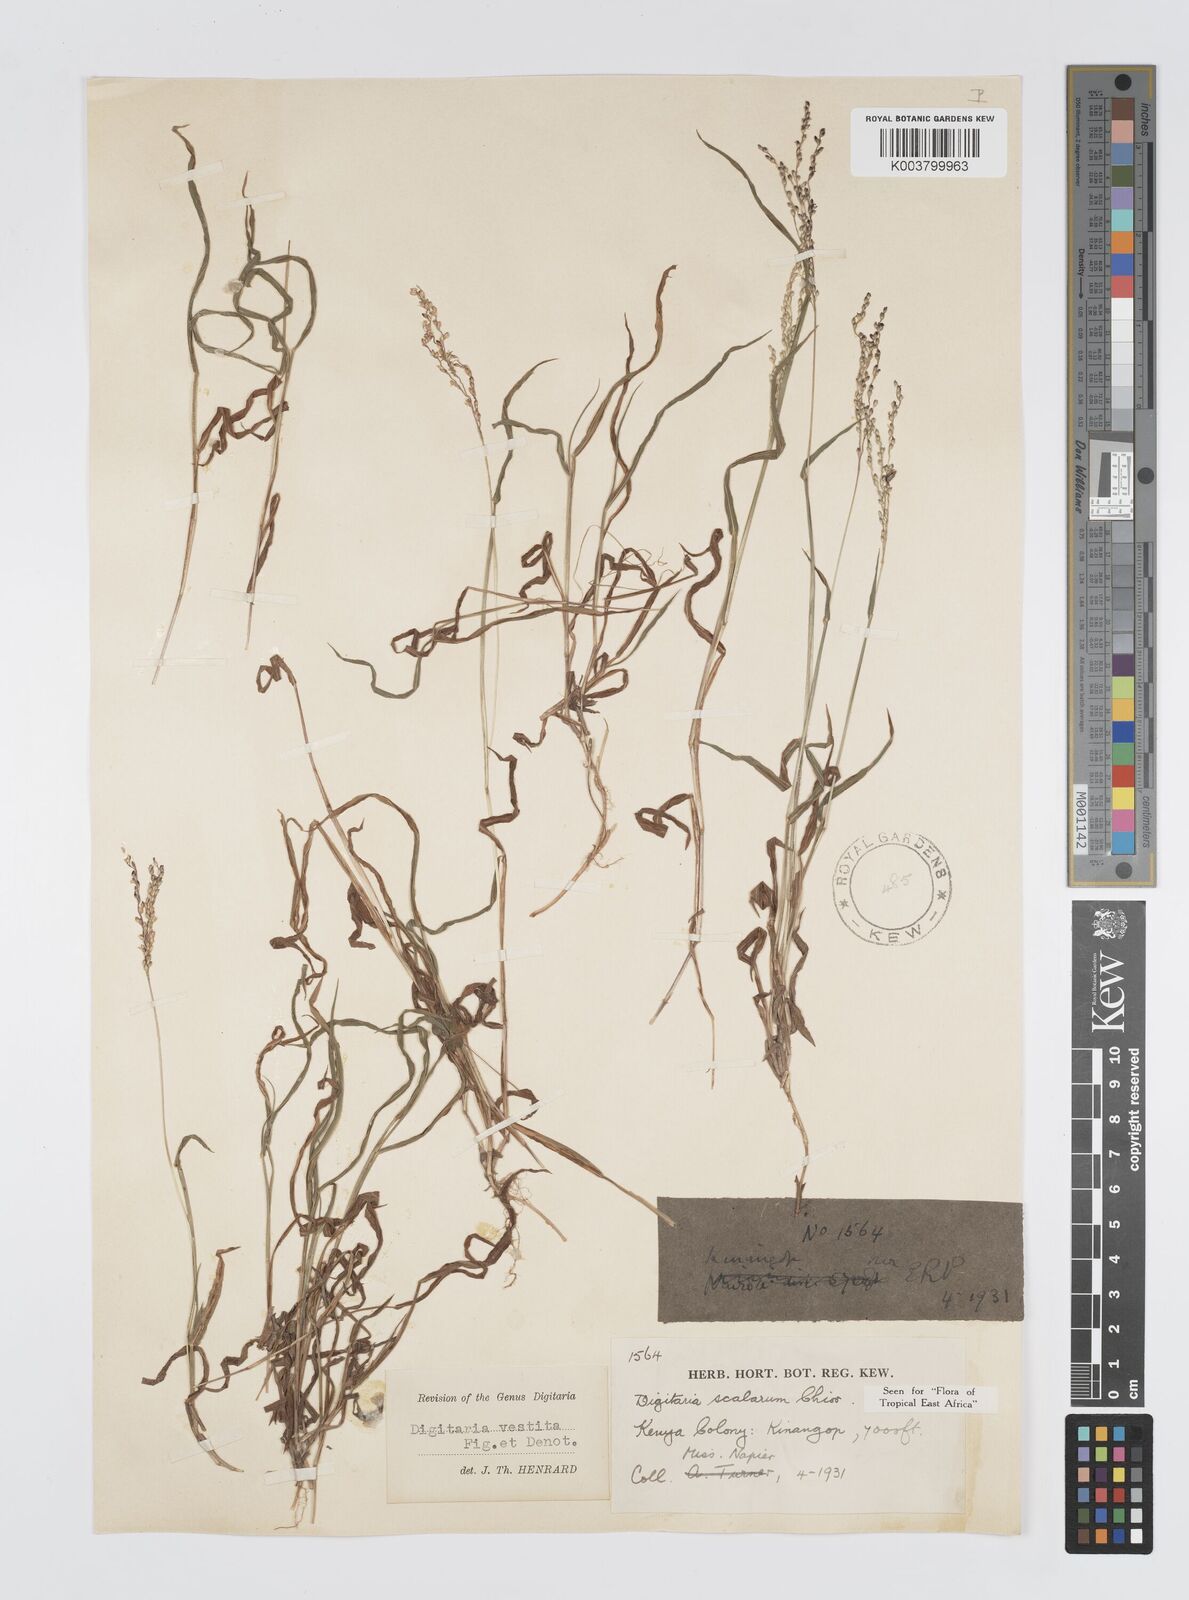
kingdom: Plantae
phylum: Tracheophyta
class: Liliopsida
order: Poales
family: Poaceae
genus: Digitaria
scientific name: Digitaria abyssinica
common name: African couchgrass
